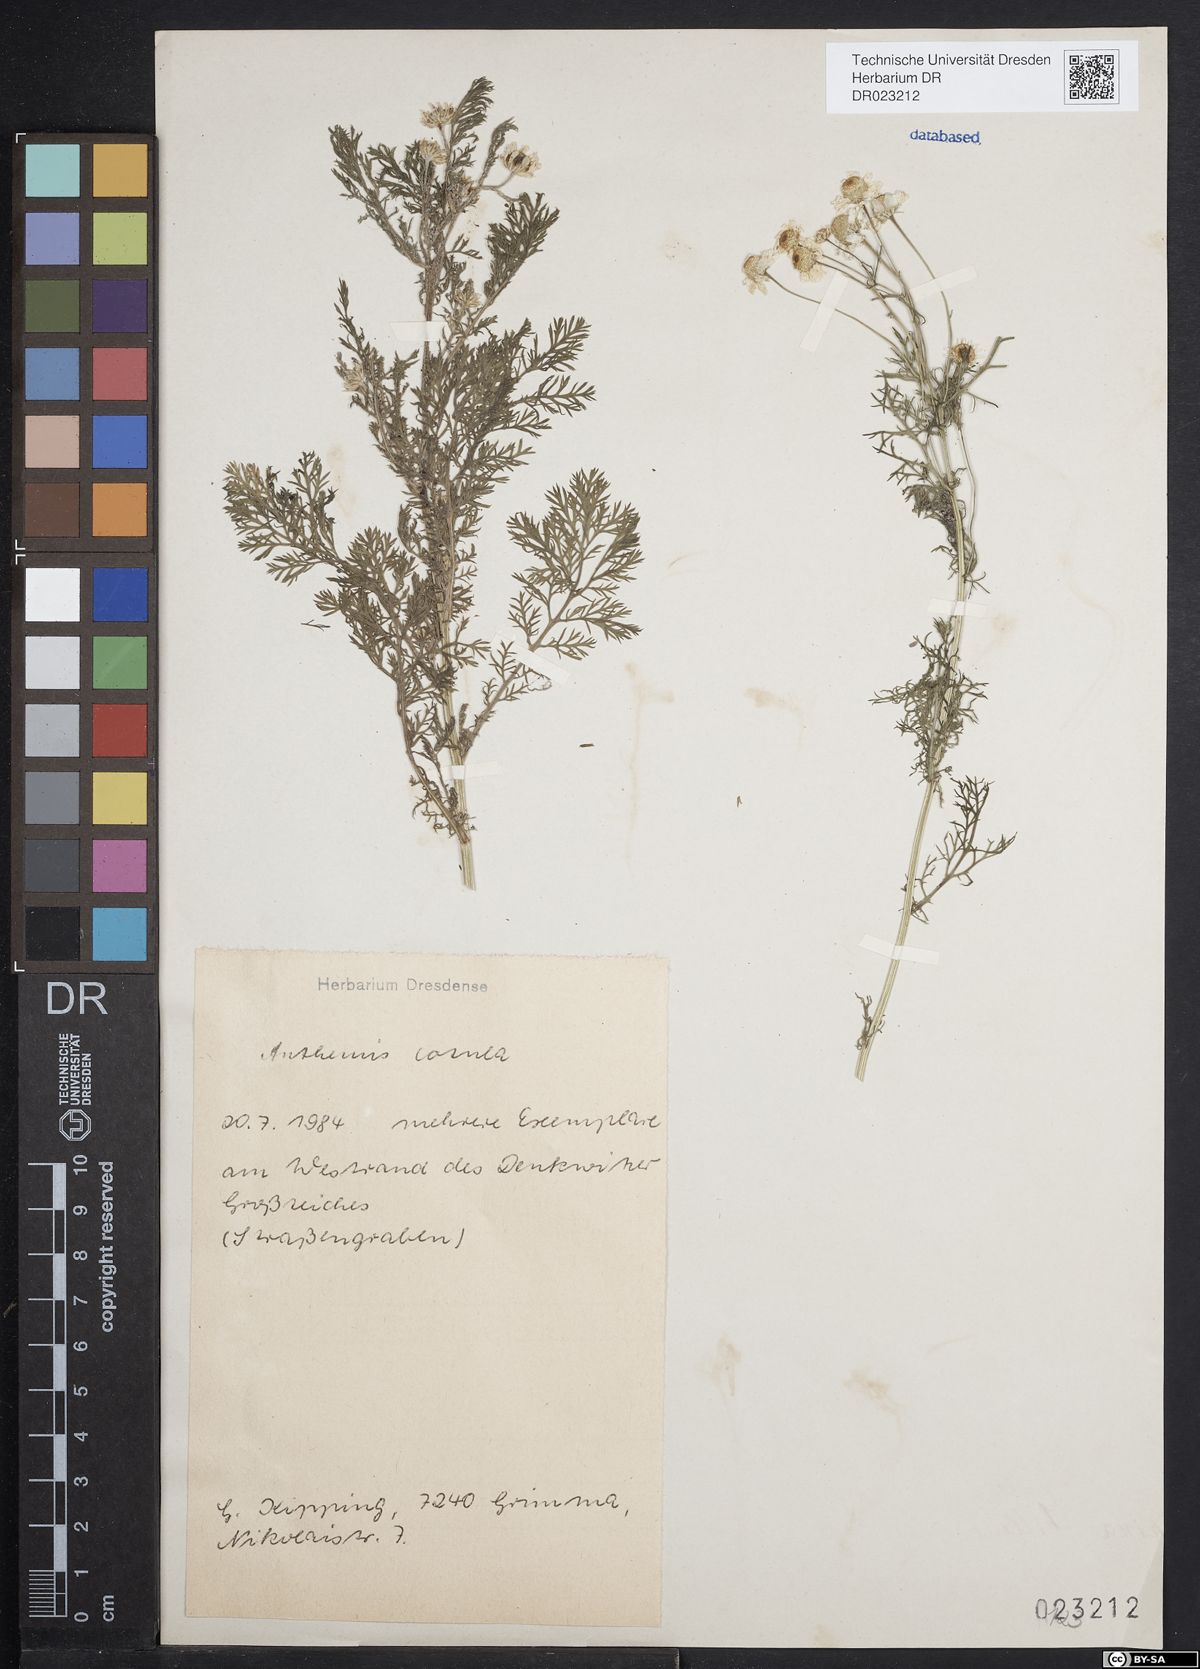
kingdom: Plantae
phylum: Tracheophyta
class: Magnoliopsida
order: Asterales
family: Asteraceae
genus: Anthemis
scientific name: Anthemis cotula
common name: Stinking chamomile
